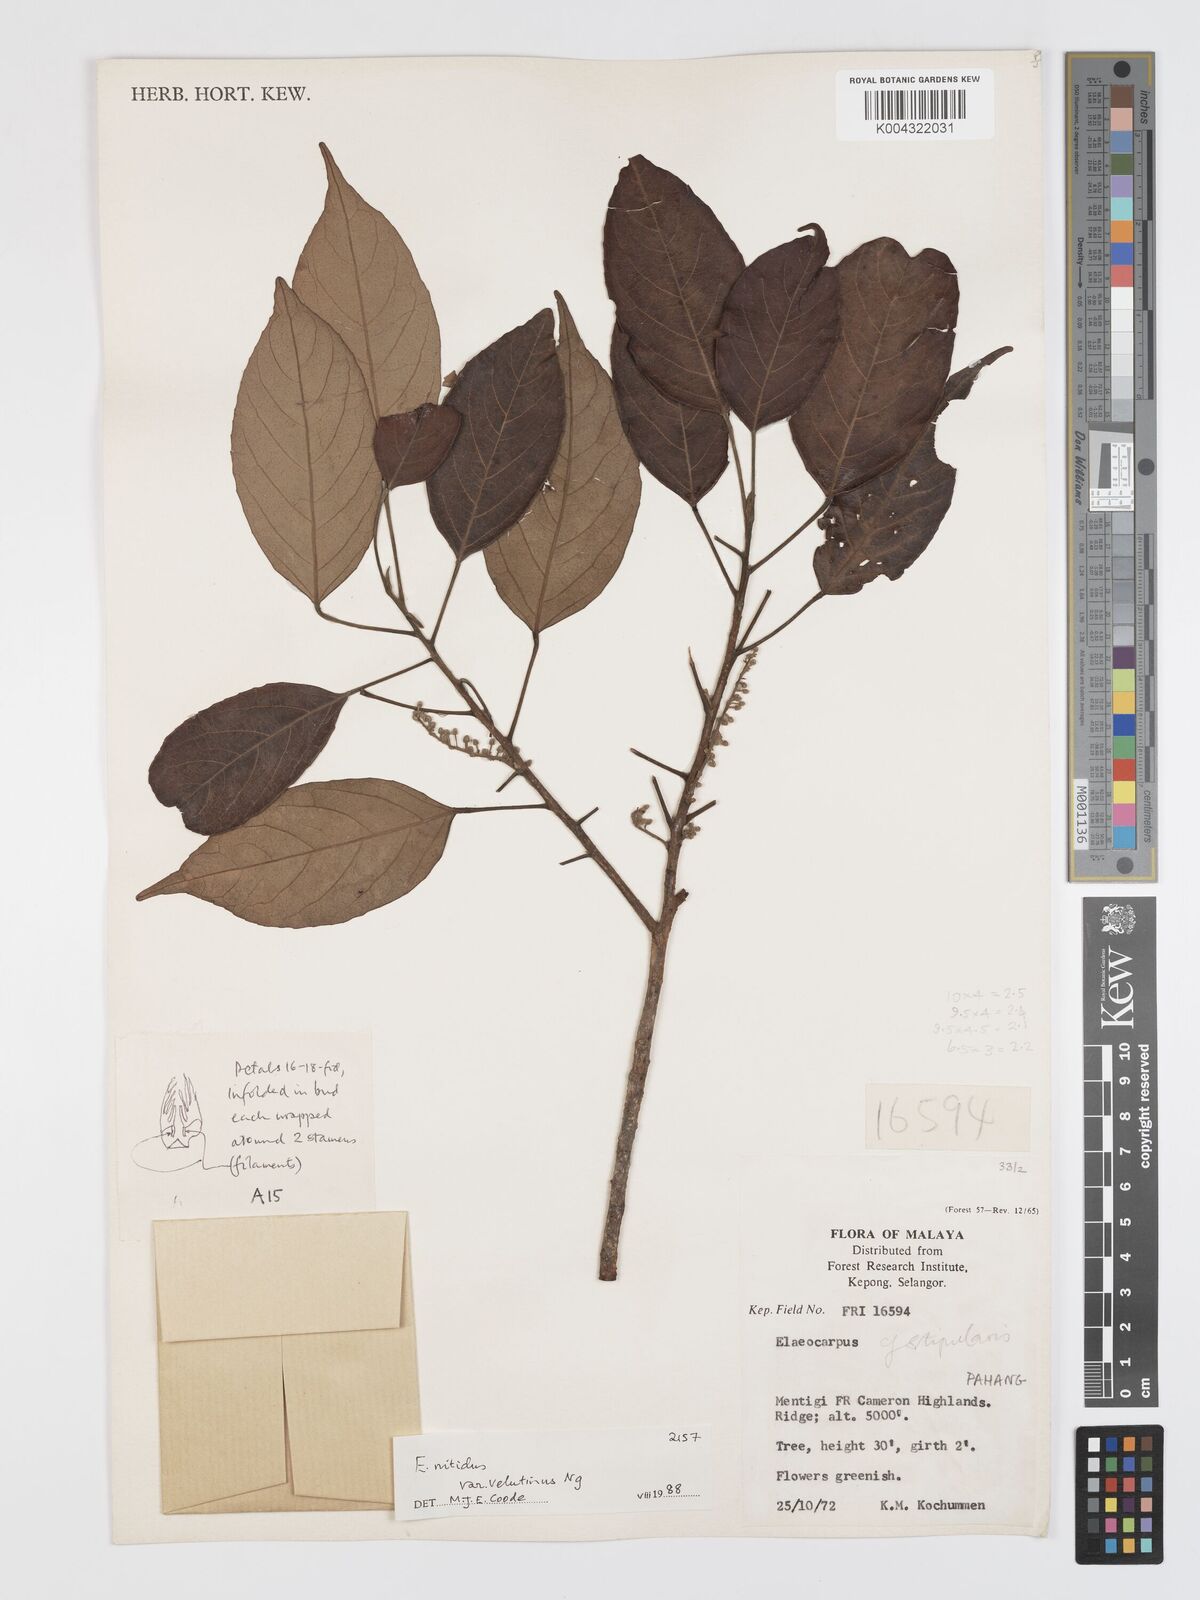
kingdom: Plantae
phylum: Tracheophyta
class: Magnoliopsida
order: Oxalidales
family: Elaeocarpaceae
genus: Elaeocarpus
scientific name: Elaeocarpus nitidus
